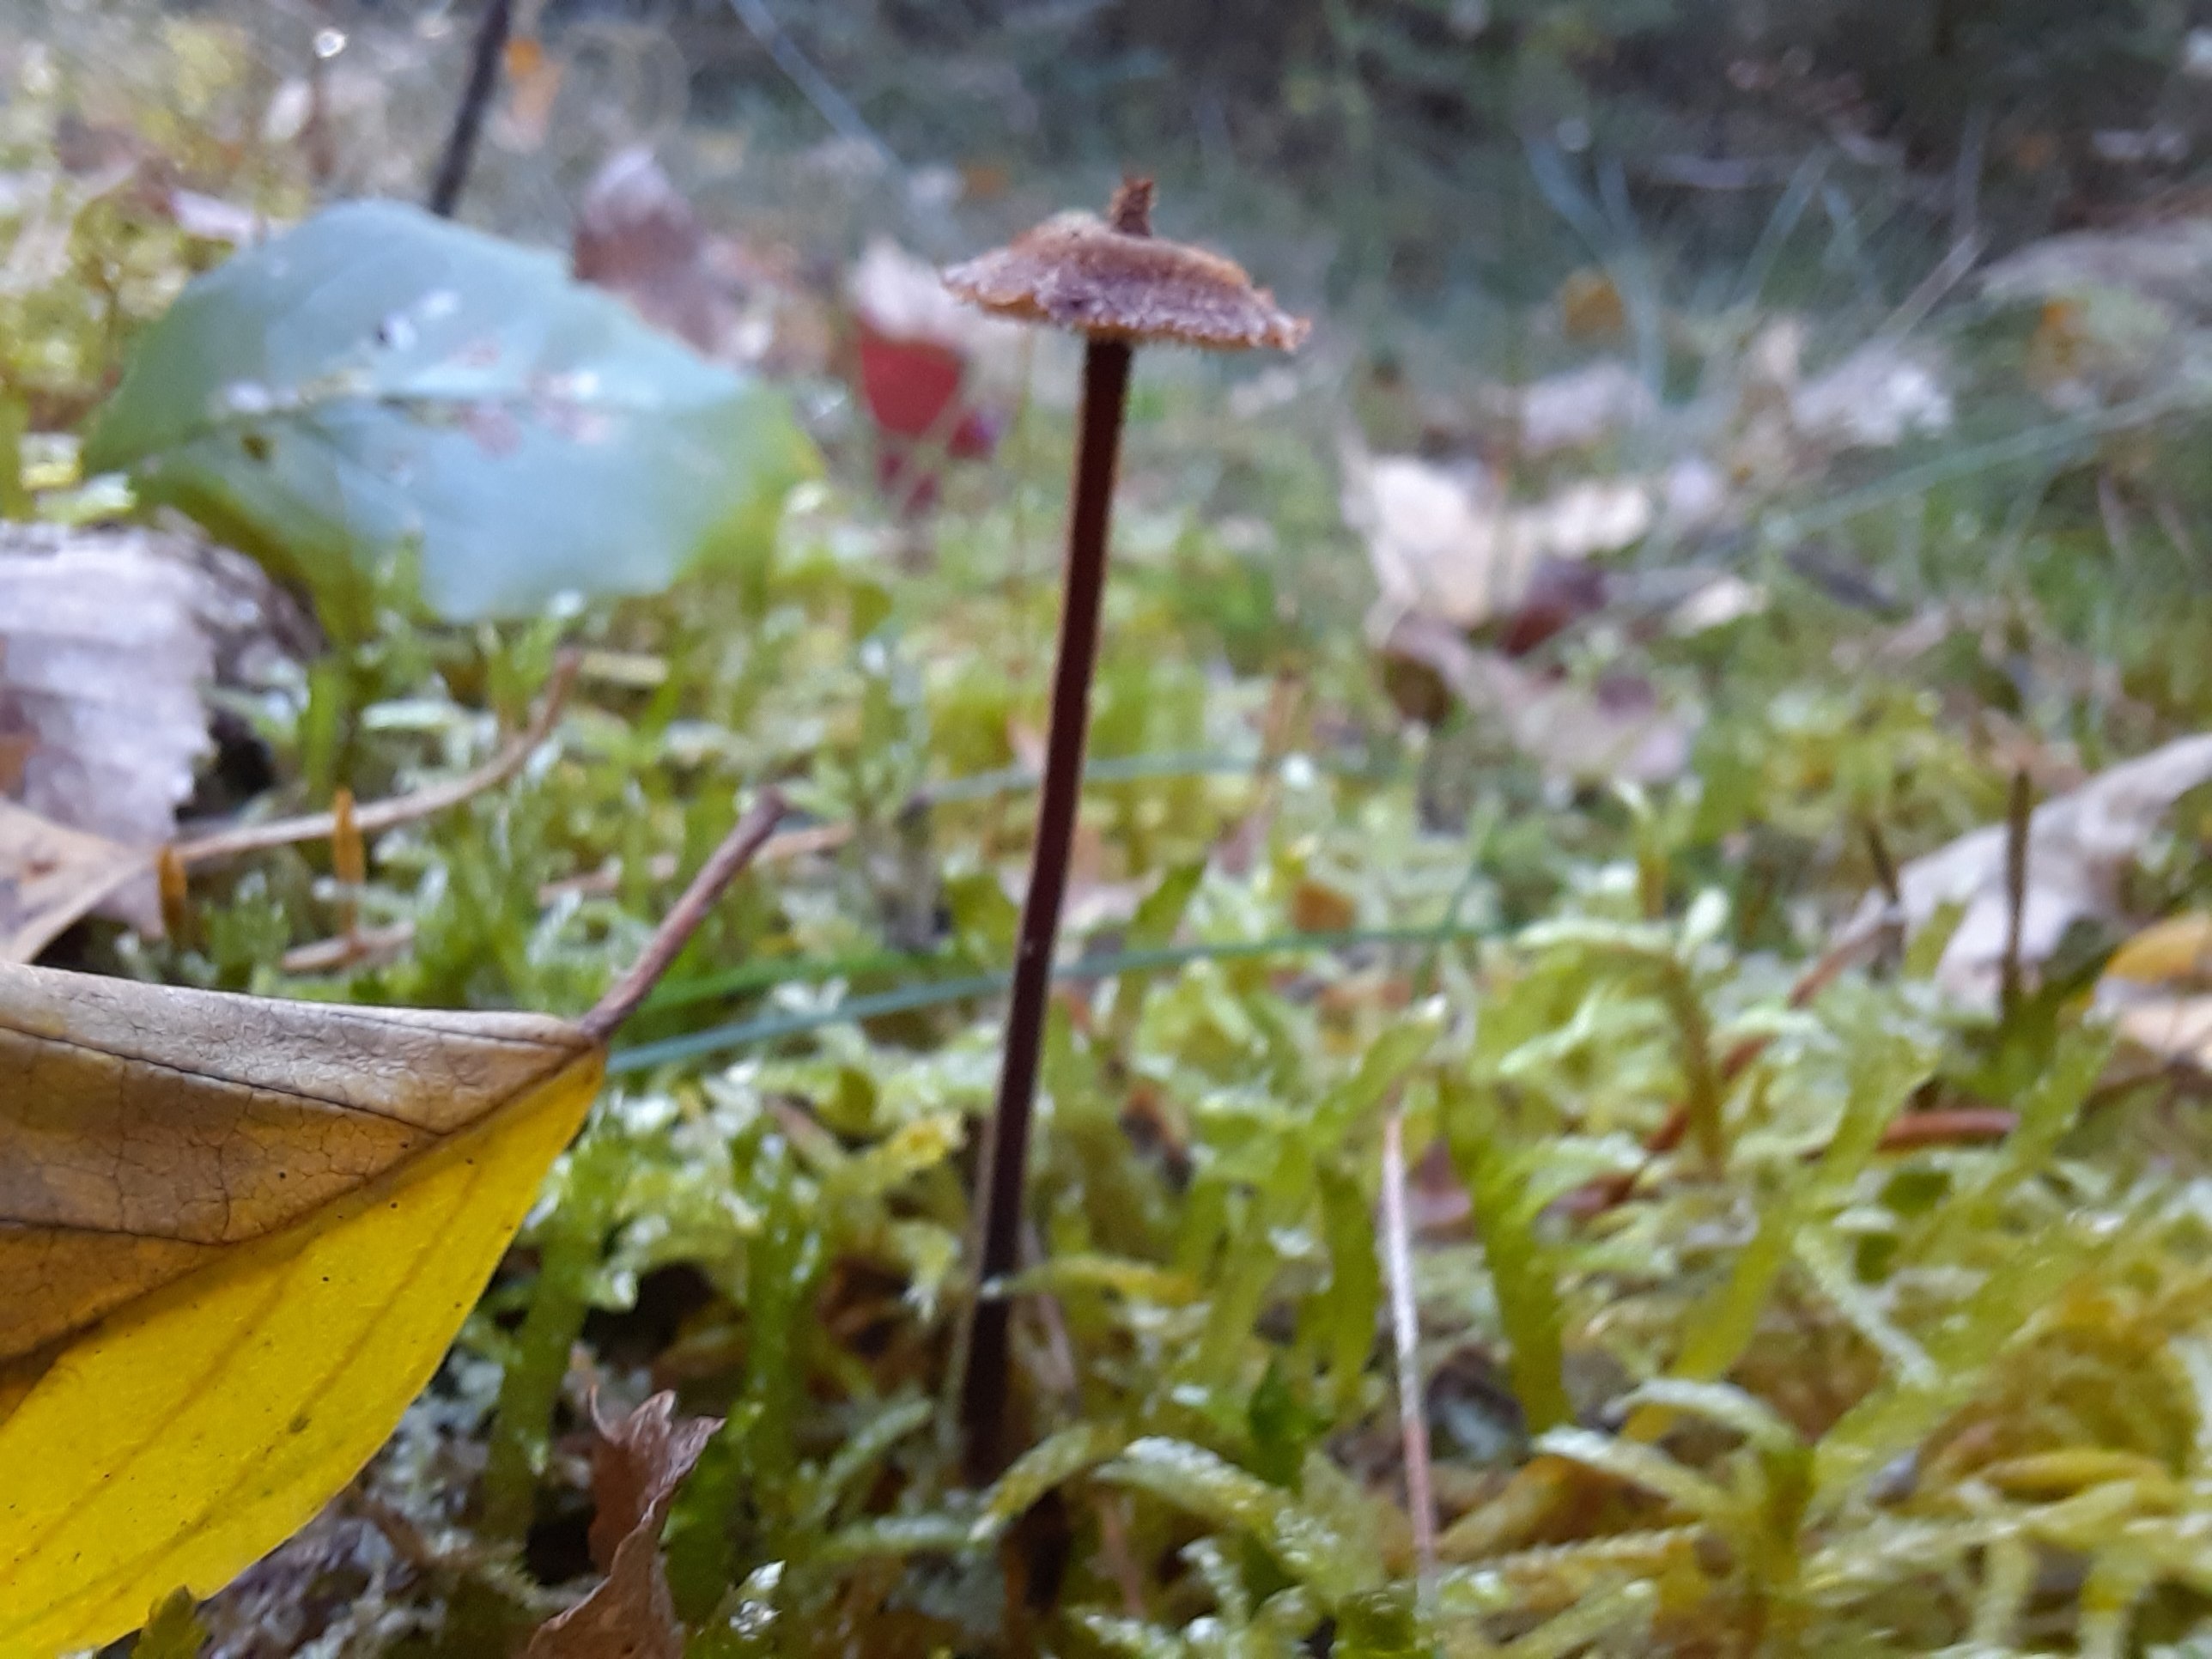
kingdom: Fungi
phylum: Basidiomycota
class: Agaricomycetes
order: Russulales
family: Auriscalpiaceae
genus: Auriscalpium
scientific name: Auriscalpium vulgare
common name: koglepigsvamp
